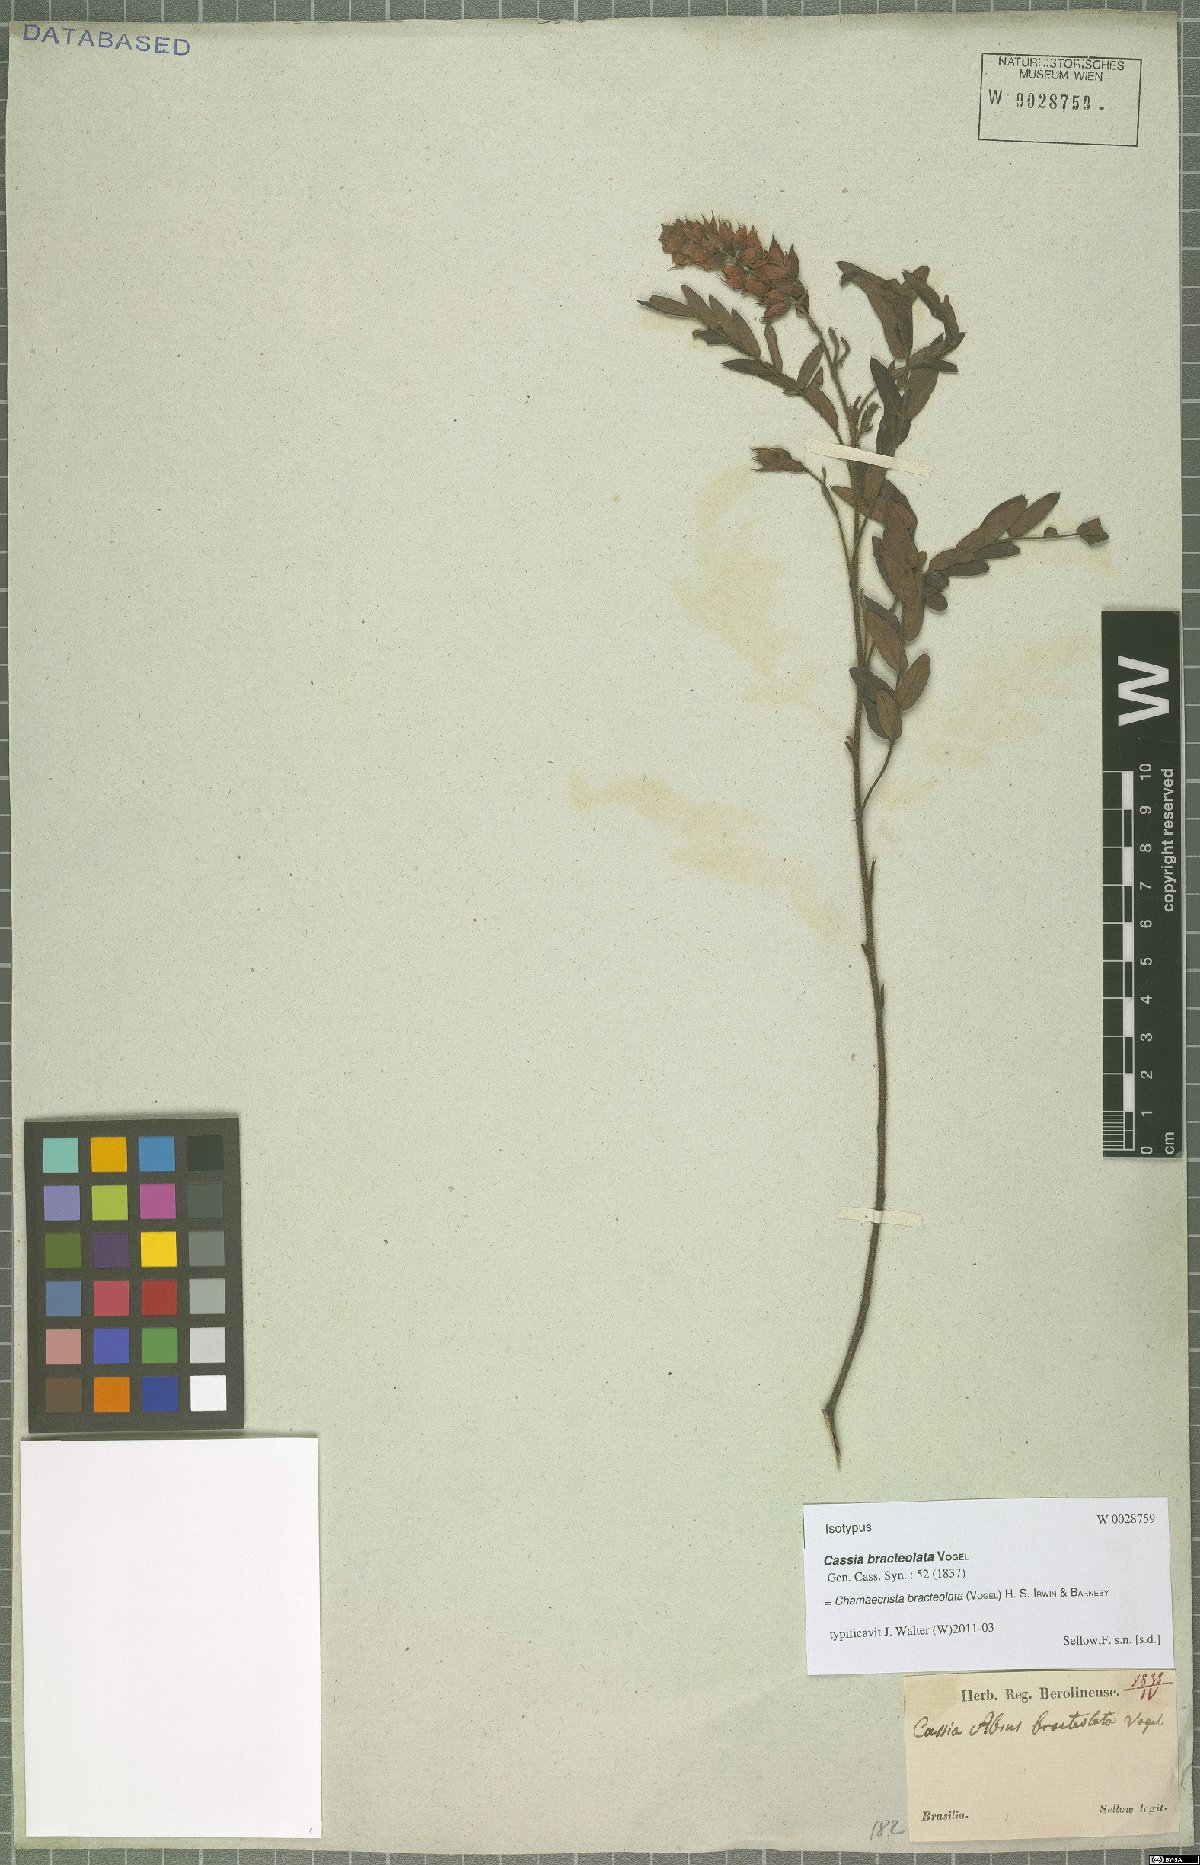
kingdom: Plantae
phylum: Tracheophyta
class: Magnoliopsida
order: Fabales
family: Fabaceae
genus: Chamaecrista
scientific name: Chamaecrista bracteolata
